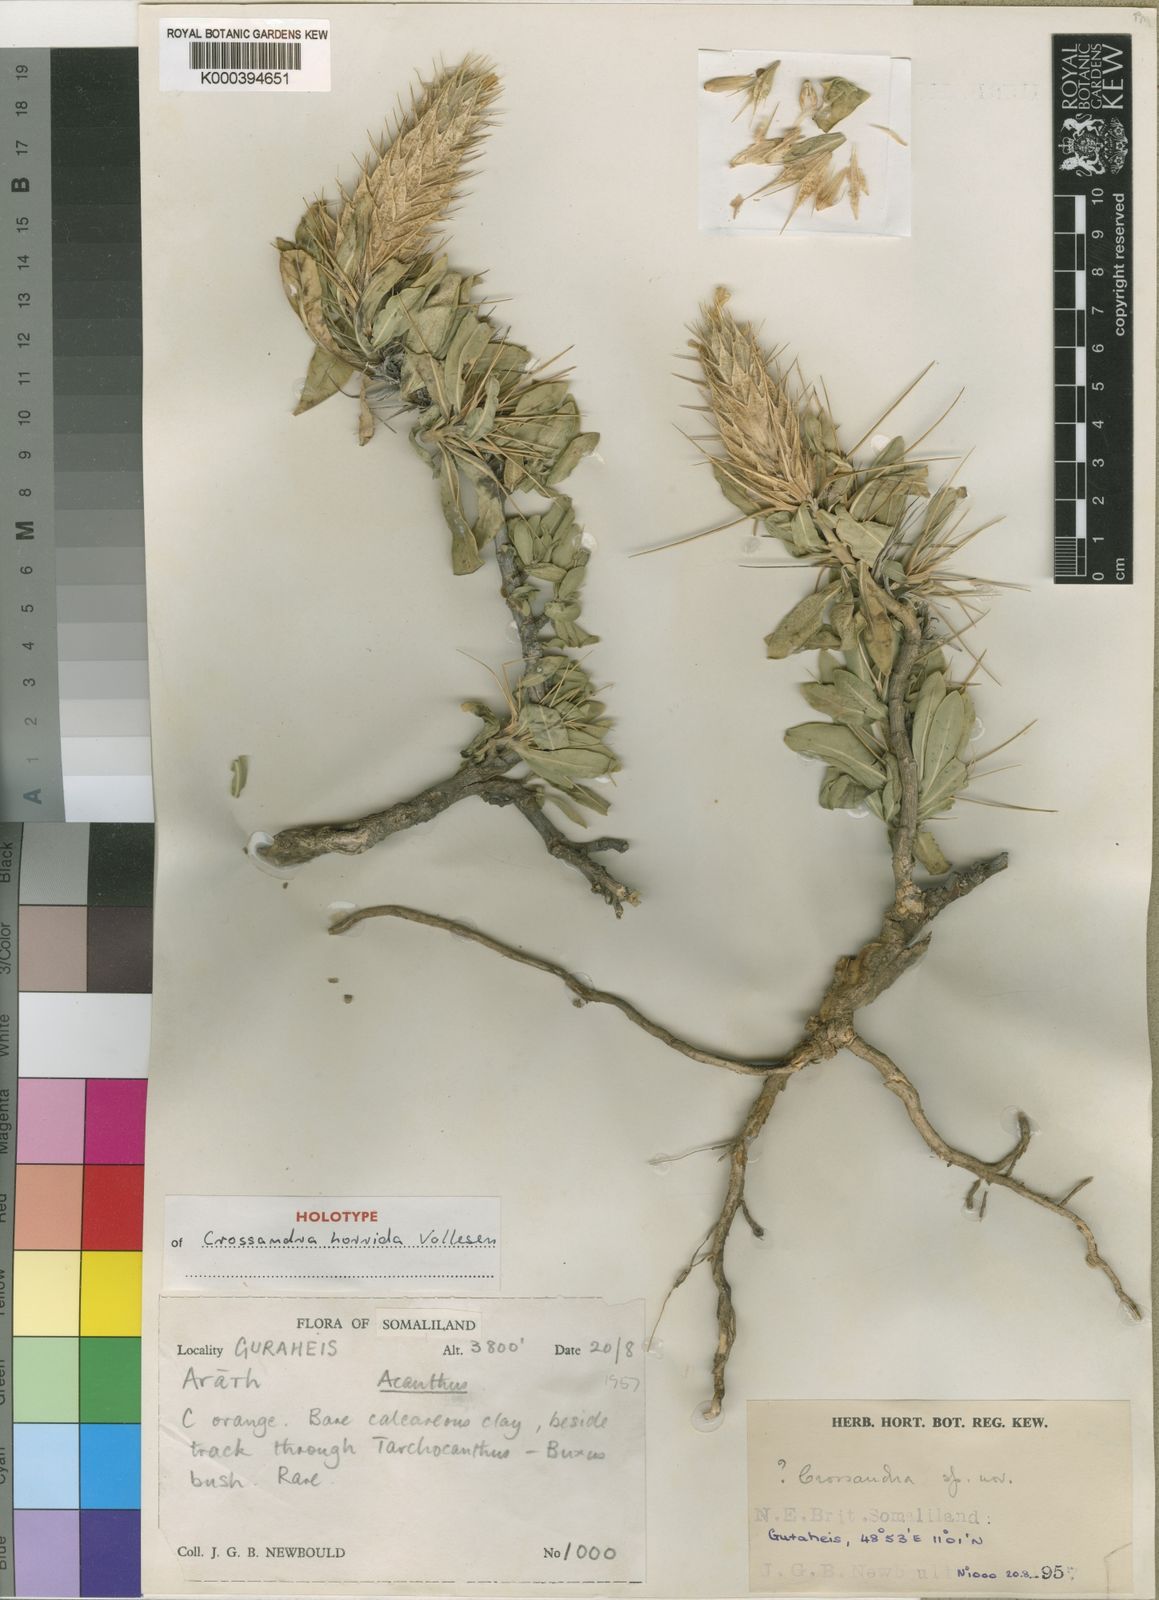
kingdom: Plantae
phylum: Tracheophyta
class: Magnoliopsida
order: Lamiales
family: Acanthaceae
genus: Crossandra
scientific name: Crossandra horrida
